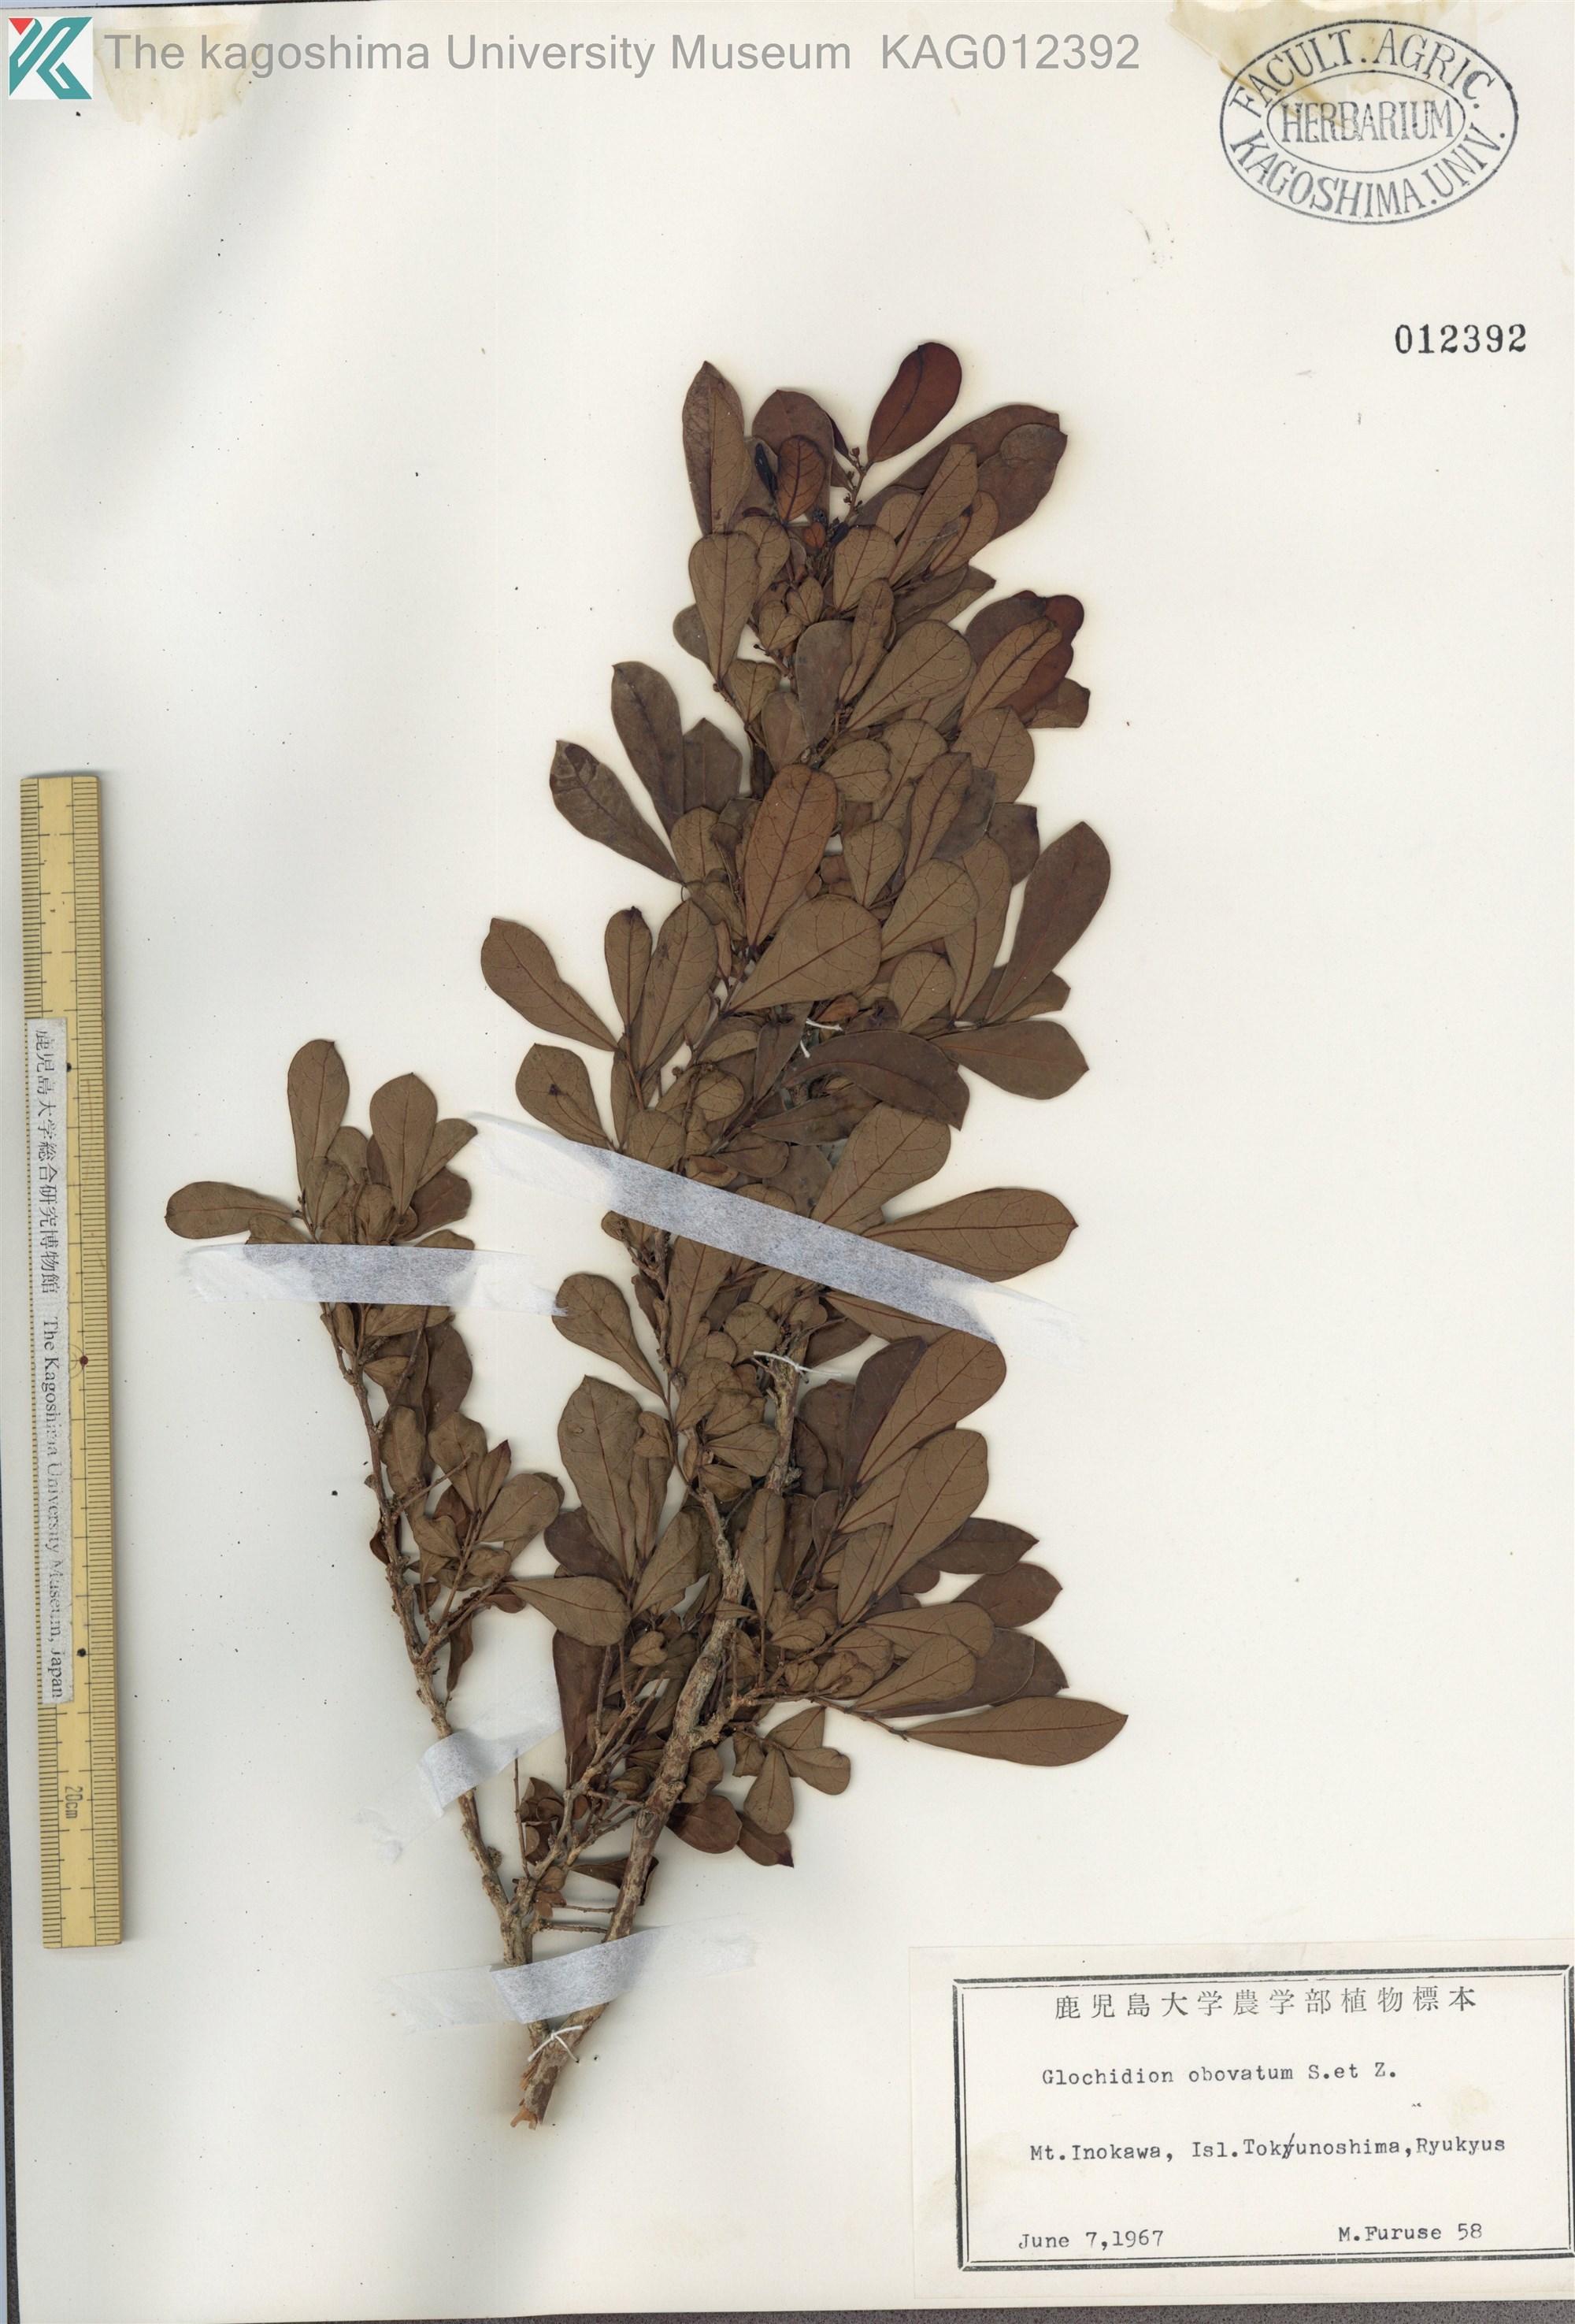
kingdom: Plantae
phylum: Tracheophyta
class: Magnoliopsida
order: Malpighiales
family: Phyllanthaceae
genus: Glochidion
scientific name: Glochidion obovatum
